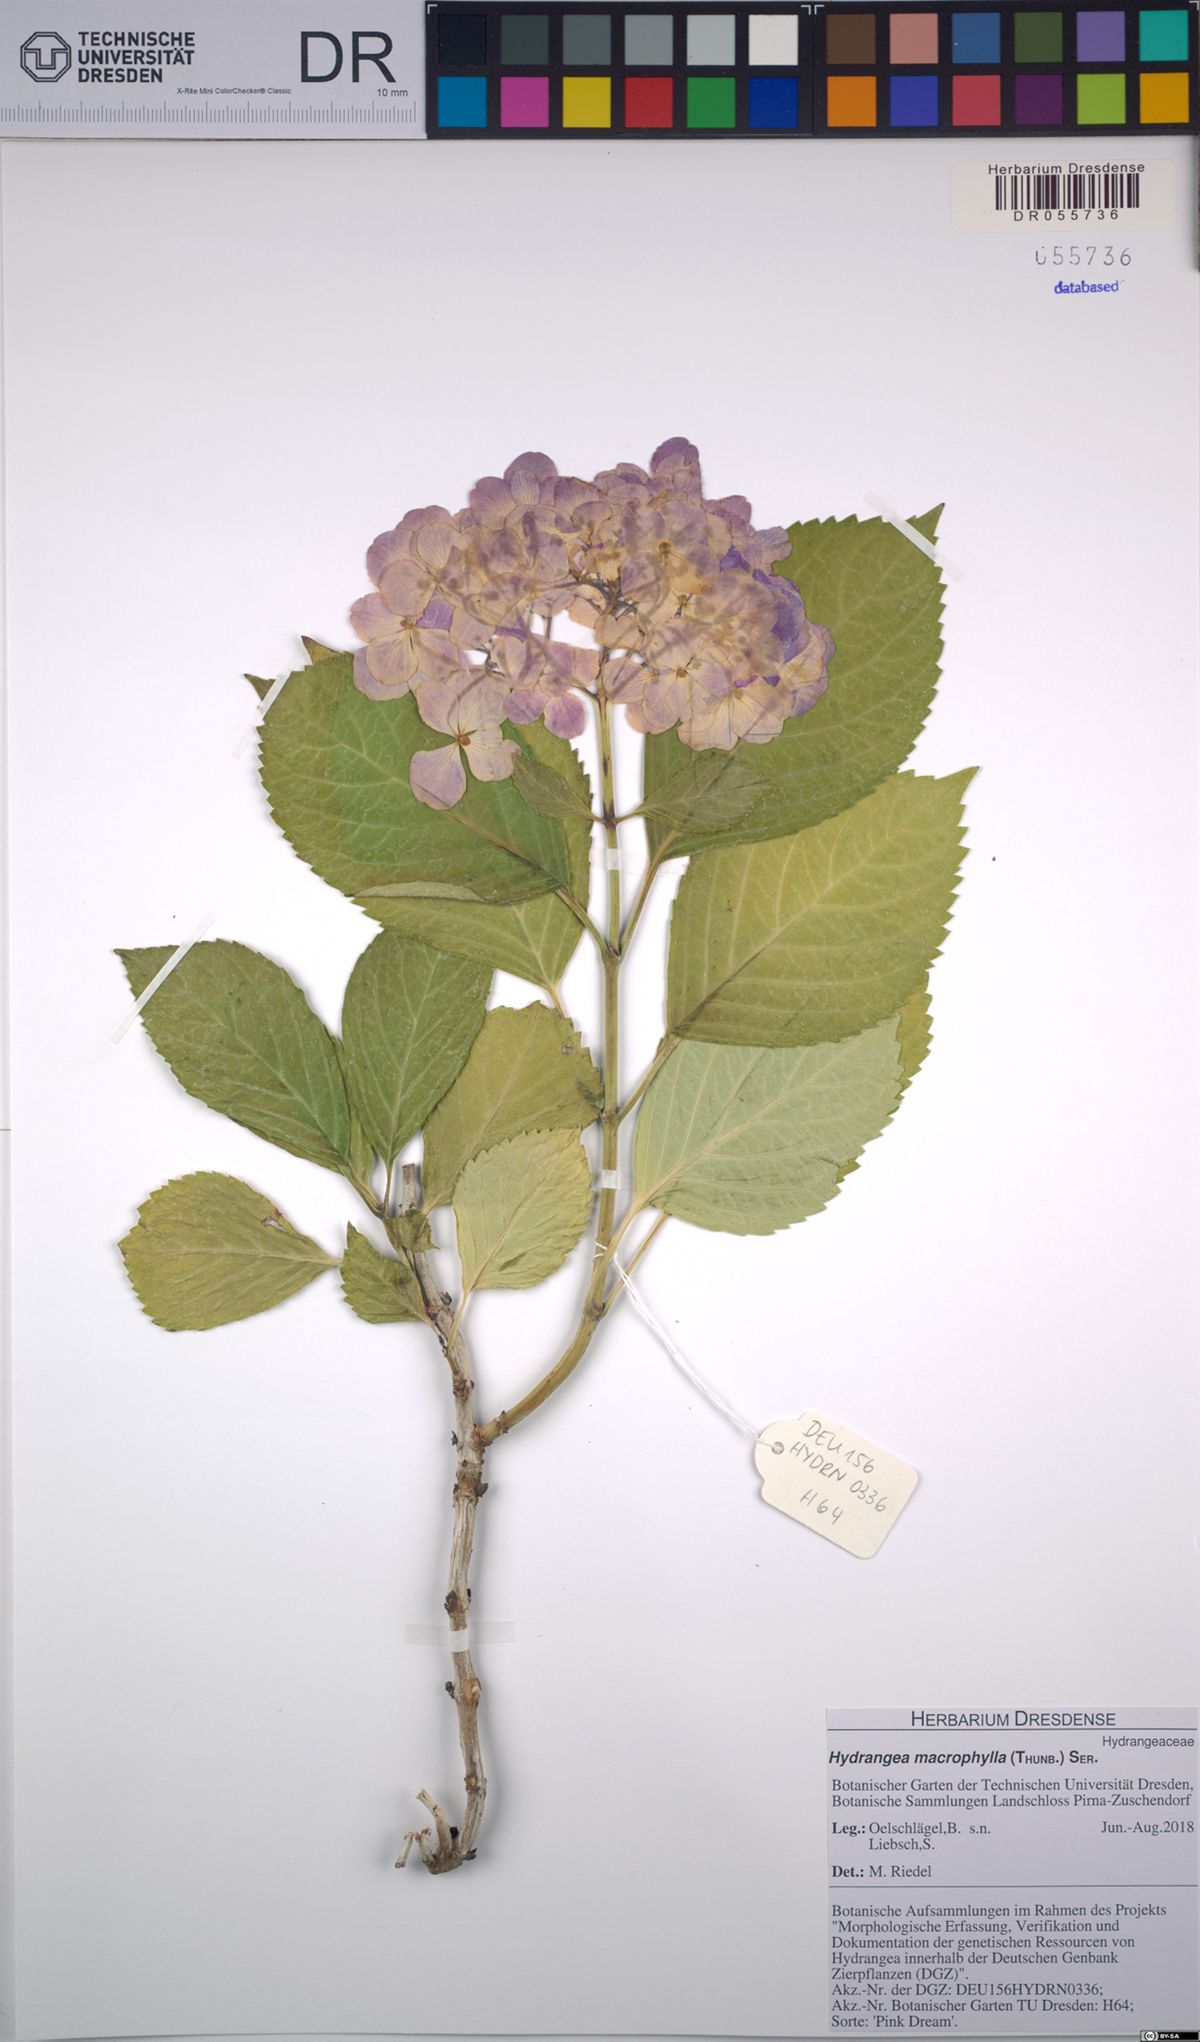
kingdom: Plantae
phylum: Tracheophyta
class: Magnoliopsida
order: Cornales
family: Hydrangeaceae
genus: Hydrangea
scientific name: Hydrangea macrophylla
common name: Hydrangea
